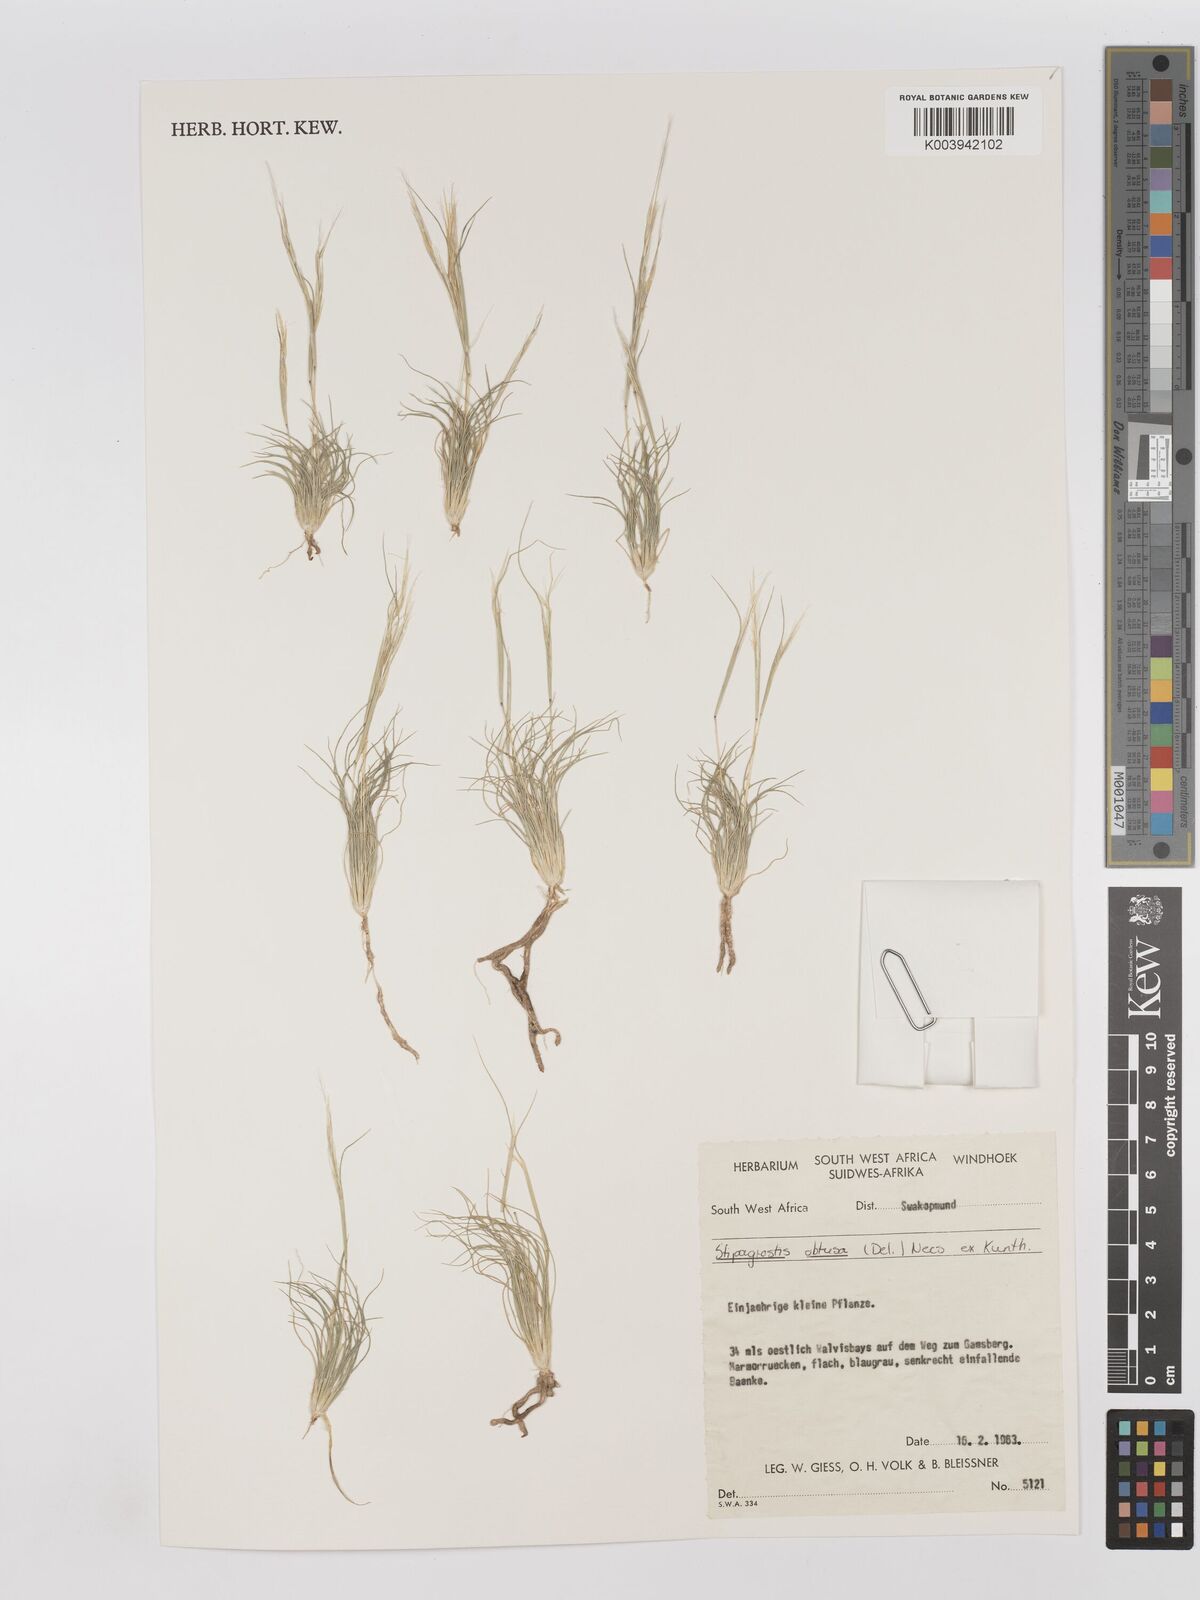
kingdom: Plantae
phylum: Tracheophyta
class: Liliopsida
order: Poales
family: Poaceae
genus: Stipagrostis
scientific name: Stipagrostis obtusa
